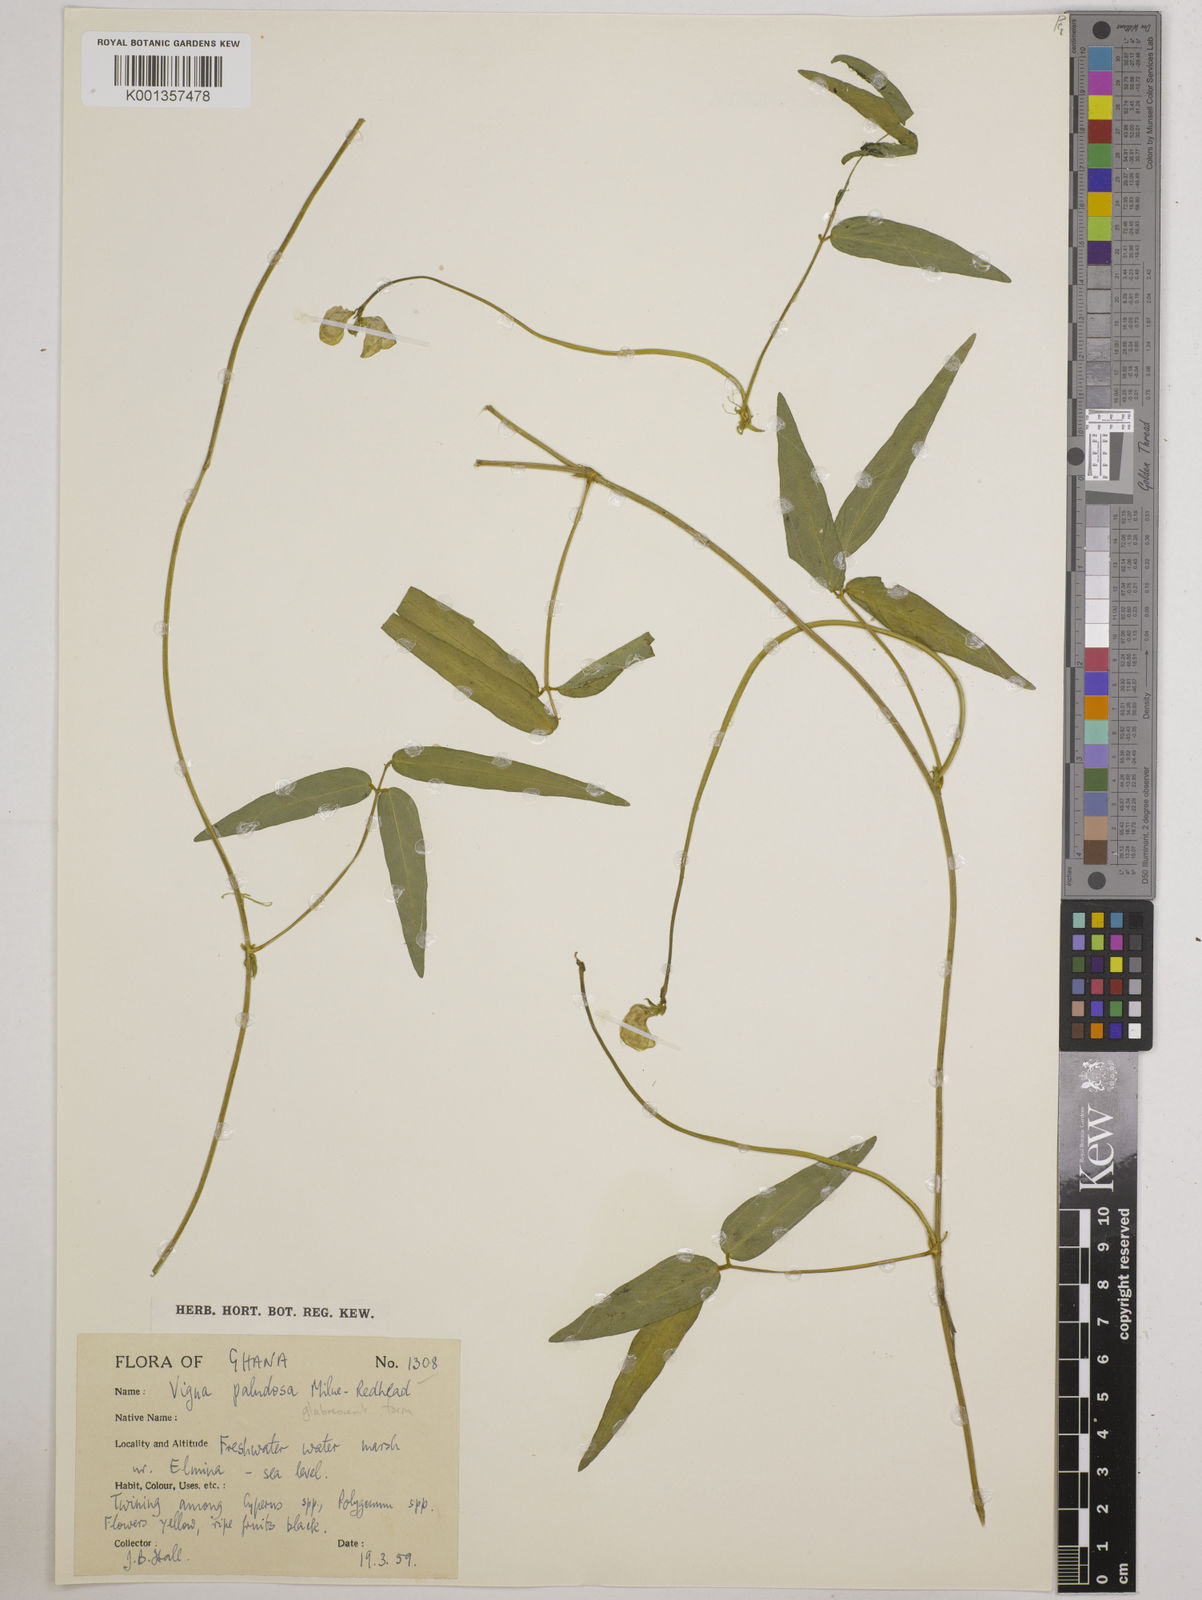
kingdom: Plantae
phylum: Tracheophyta
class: Magnoliopsida
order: Fabales
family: Fabaceae
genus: Vigna
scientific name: Vigna longifolia
